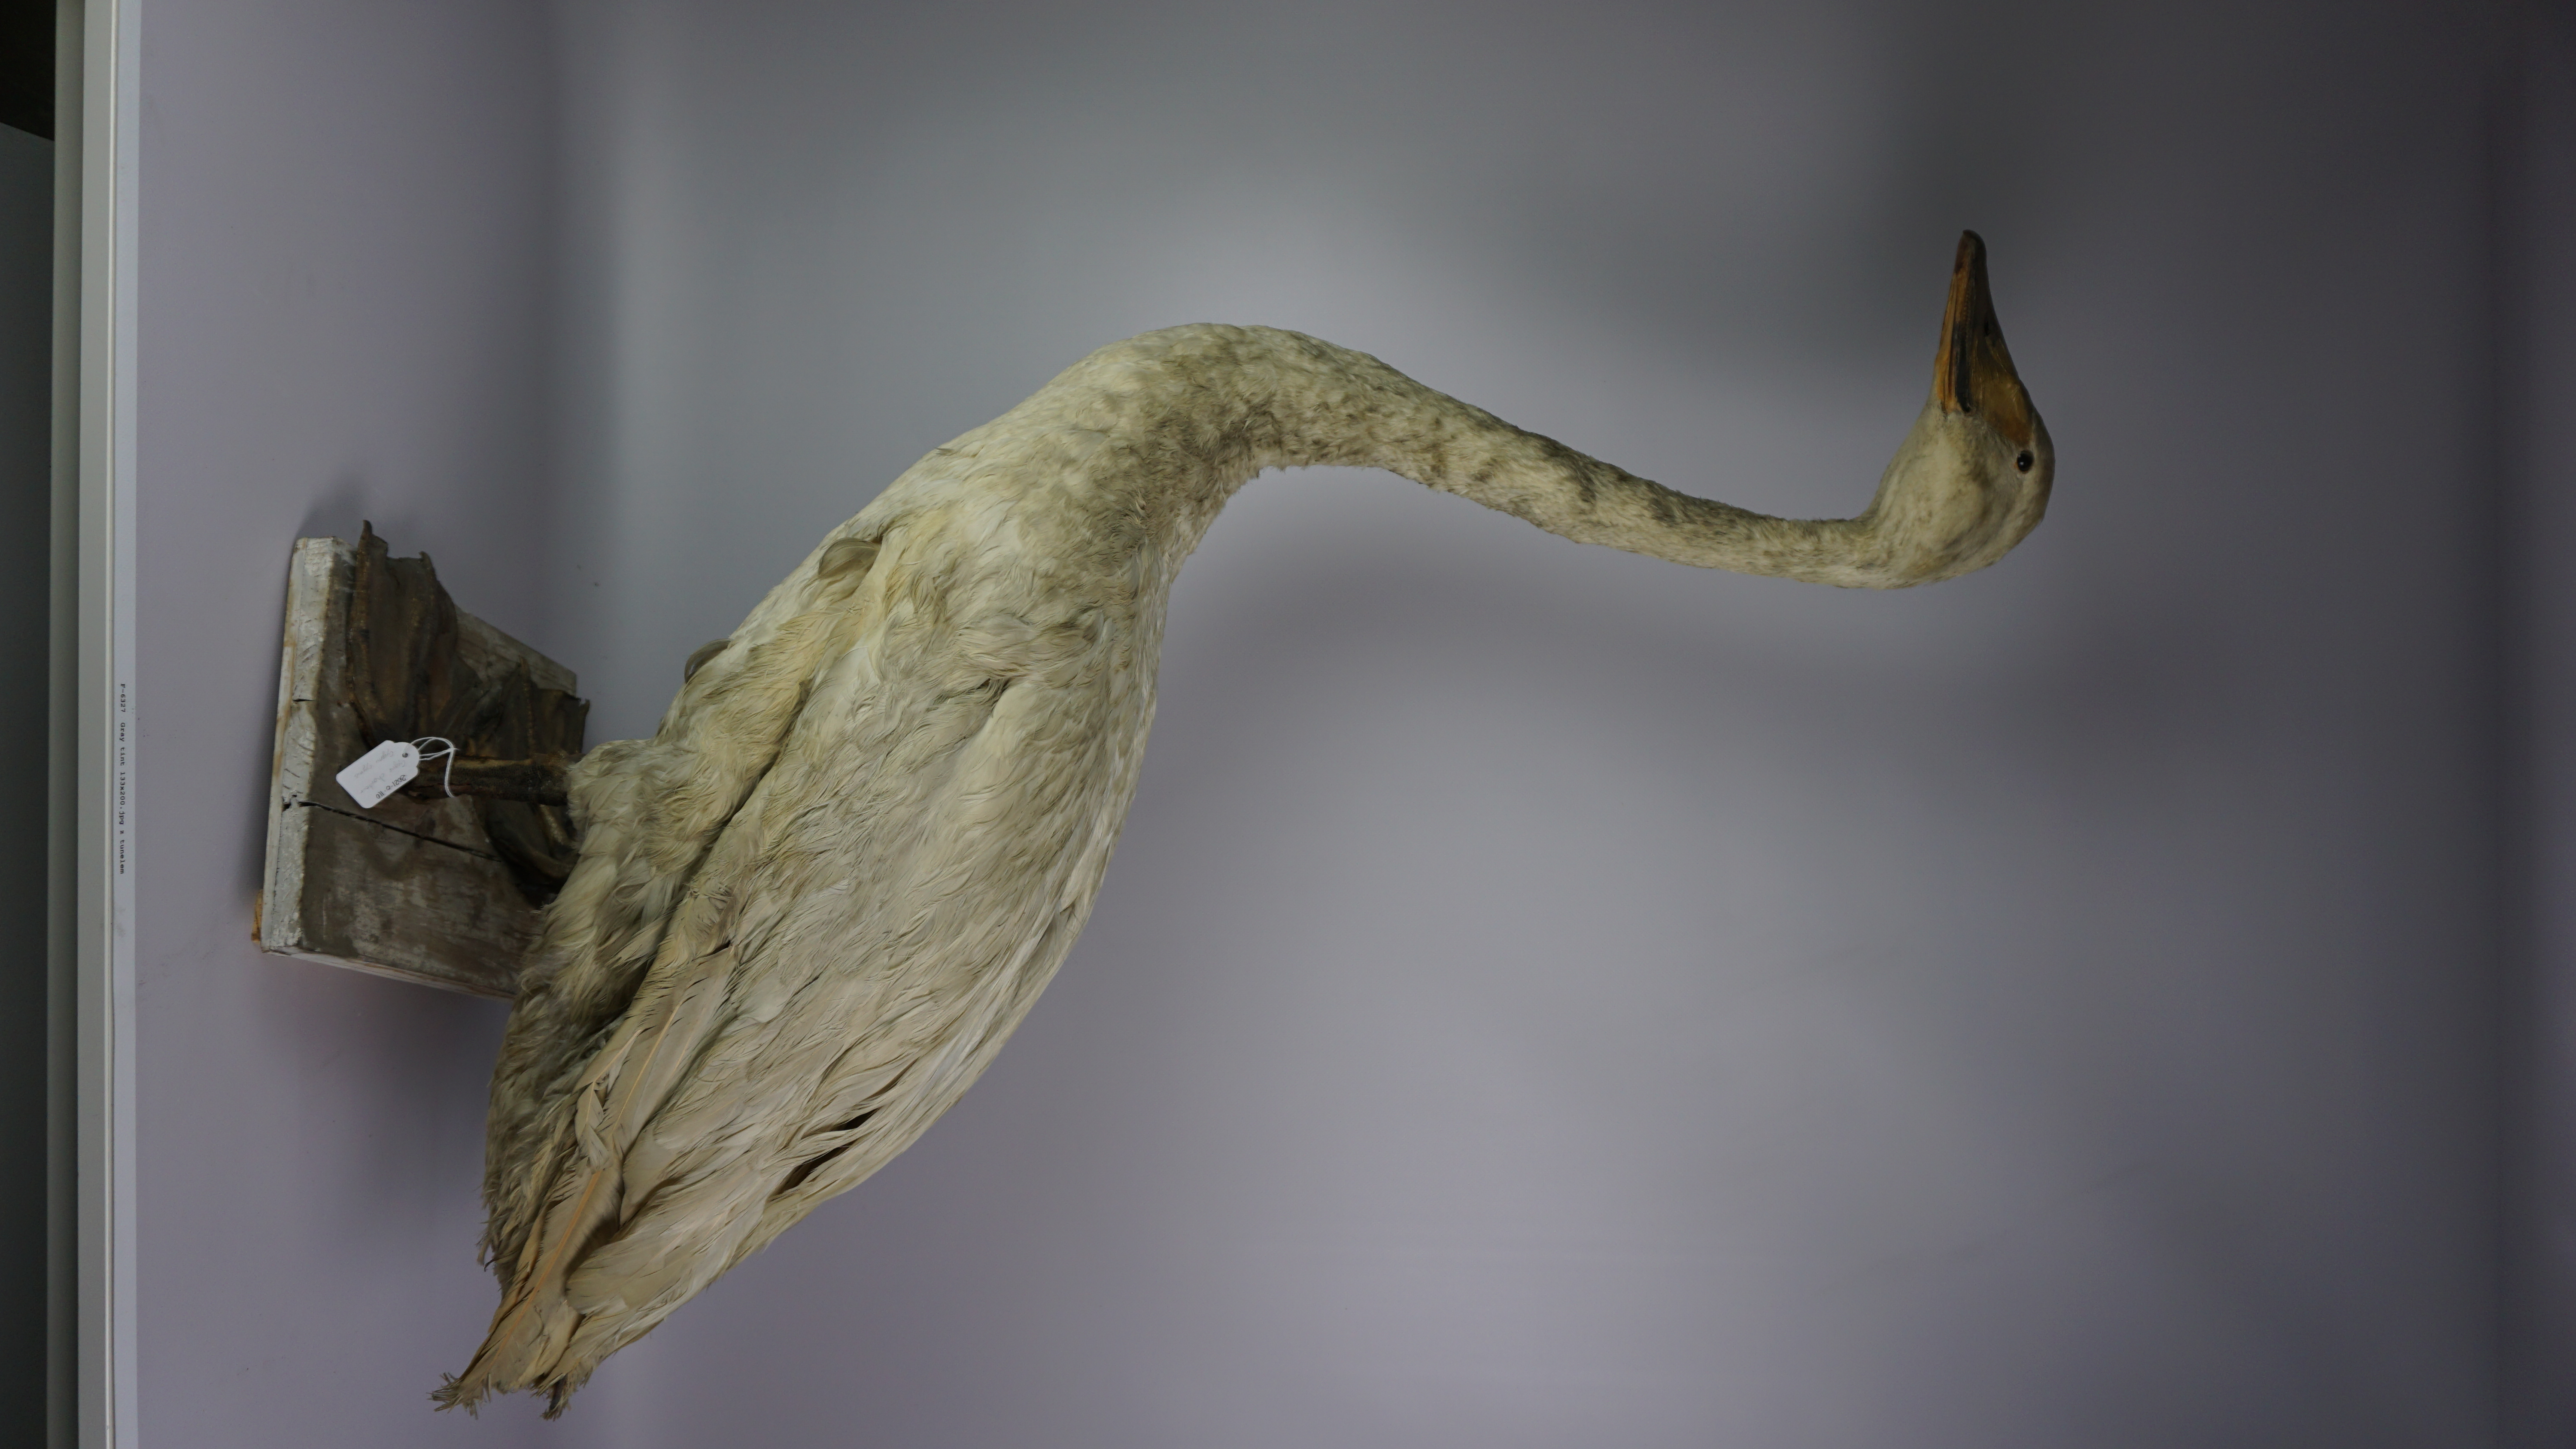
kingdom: Animalia
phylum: Chordata
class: Aves
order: Anseriformes
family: Anatidae
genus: Cygnus
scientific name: Cygnus cygnus
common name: Whooper swan
